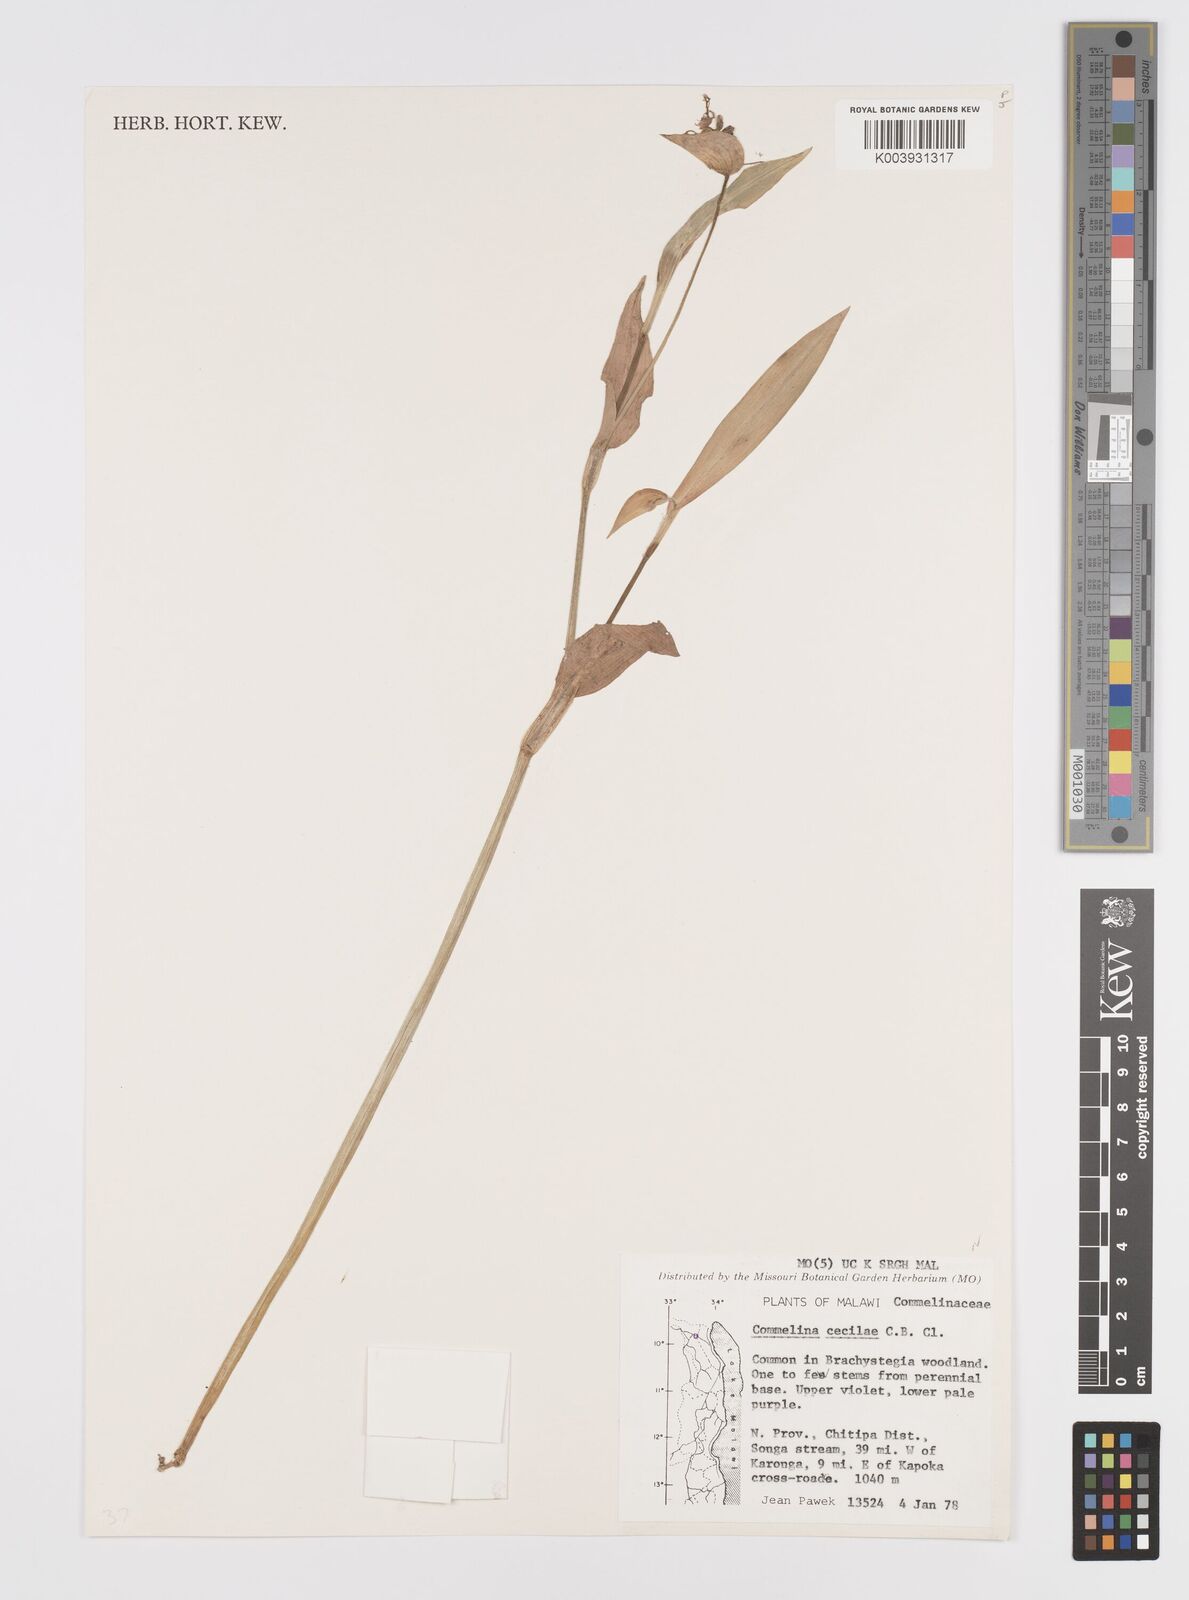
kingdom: Plantae
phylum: Tracheophyta
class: Liliopsida
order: Commelinales
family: Commelinaceae
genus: Commelina
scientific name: Commelina
